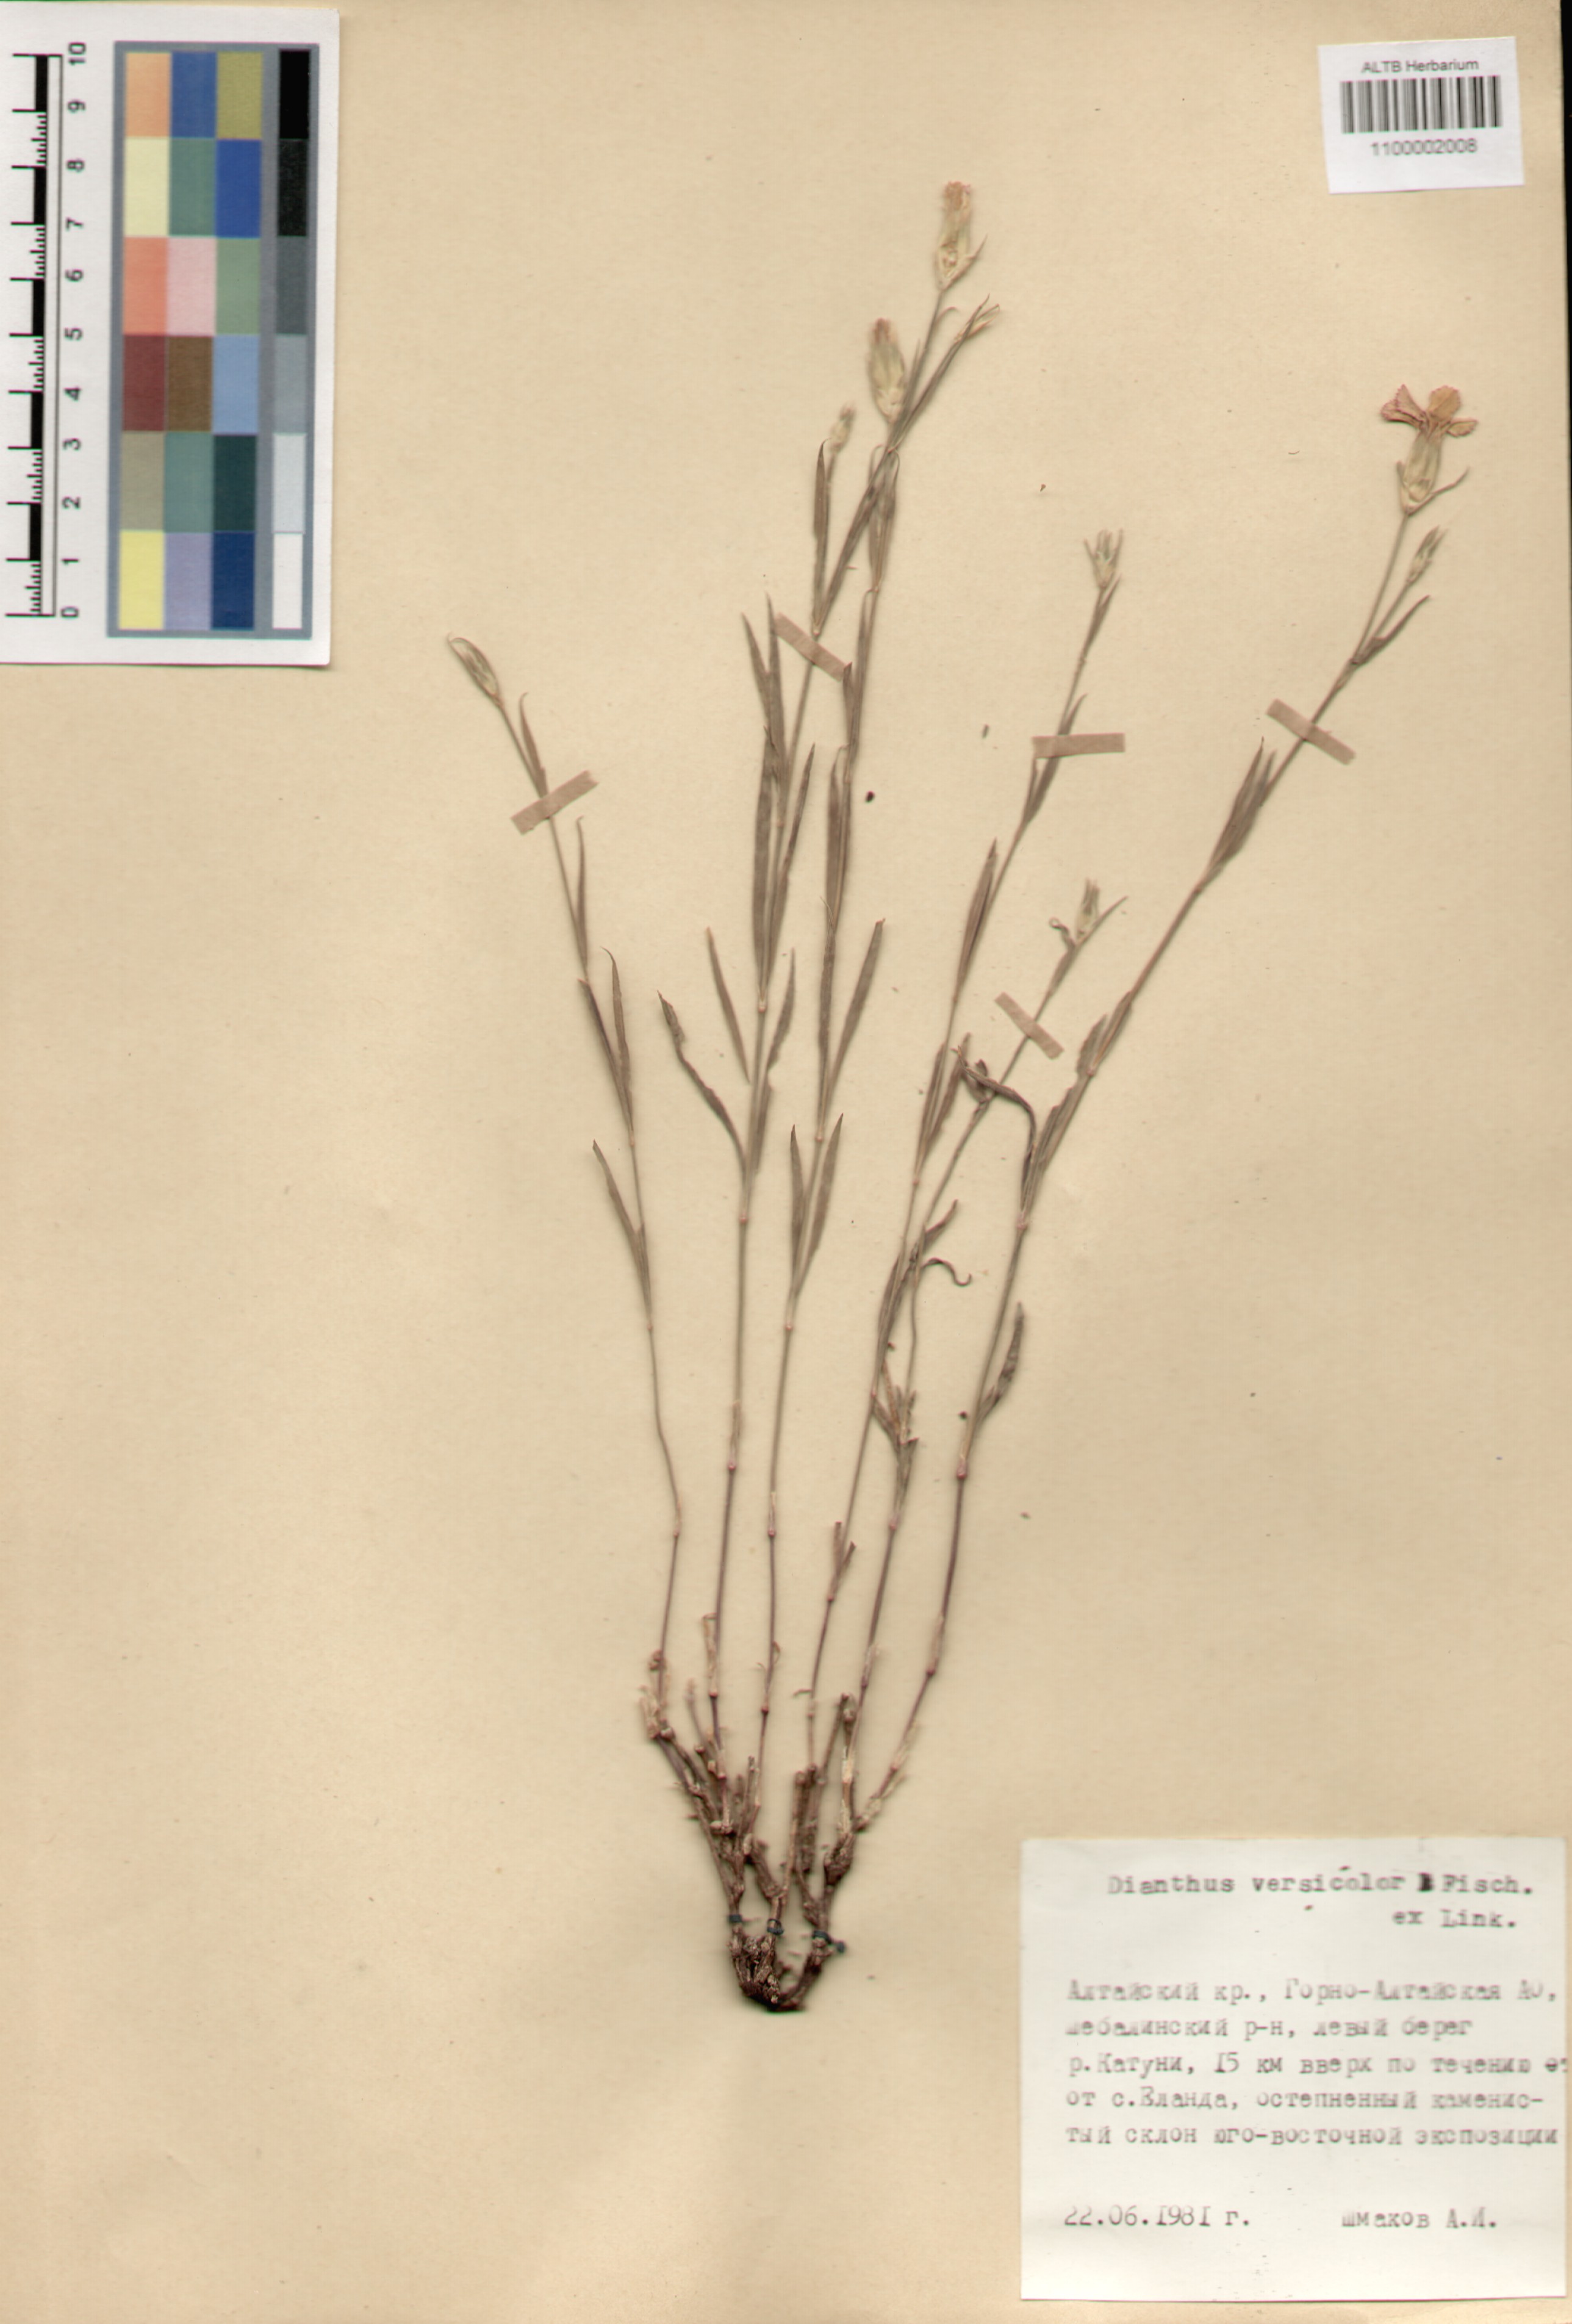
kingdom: Plantae
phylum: Tracheophyta
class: Magnoliopsida
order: Caryophyllales
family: Caryophyllaceae
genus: Dianthus
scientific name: Dianthus chinensis
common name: Rainbow pink
